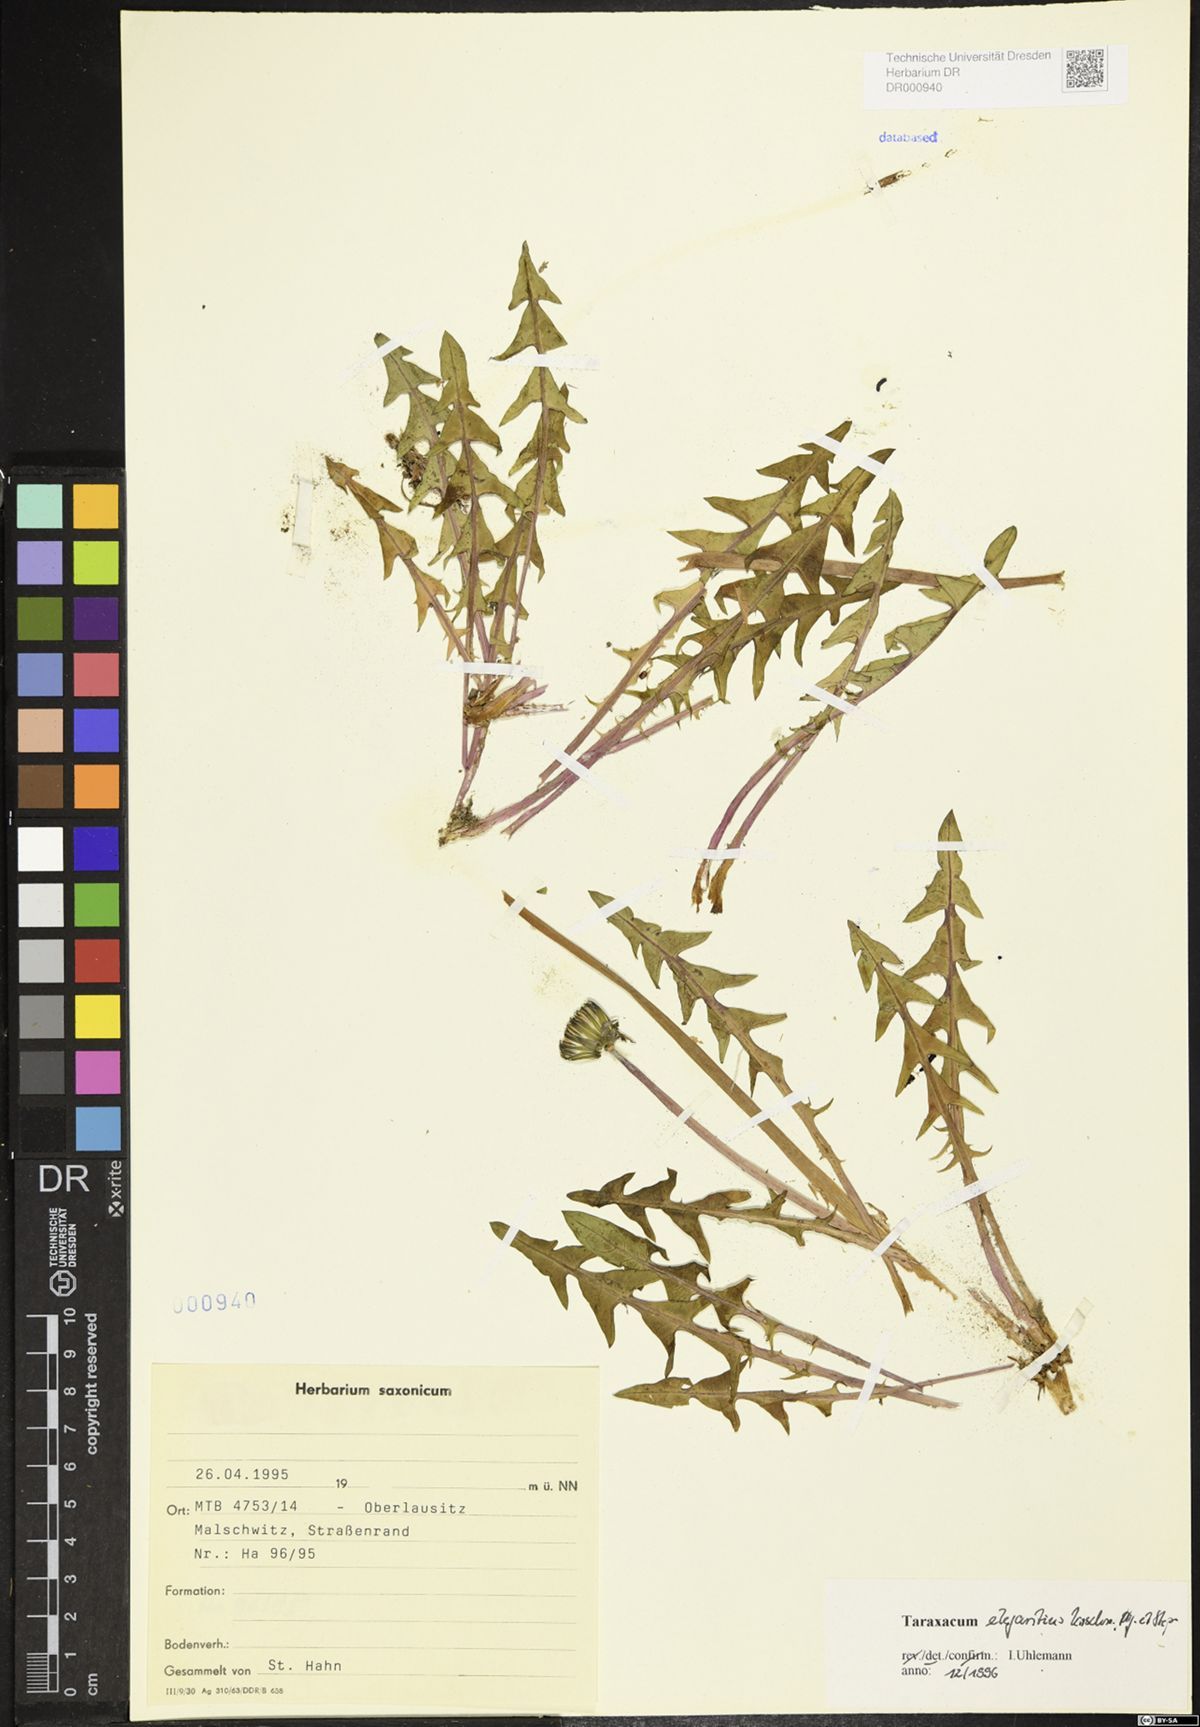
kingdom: Plantae
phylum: Tracheophyta
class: Magnoliopsida
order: Asterales
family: Asteraceae
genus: Taraxacum
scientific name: Taraxacum elegantius
